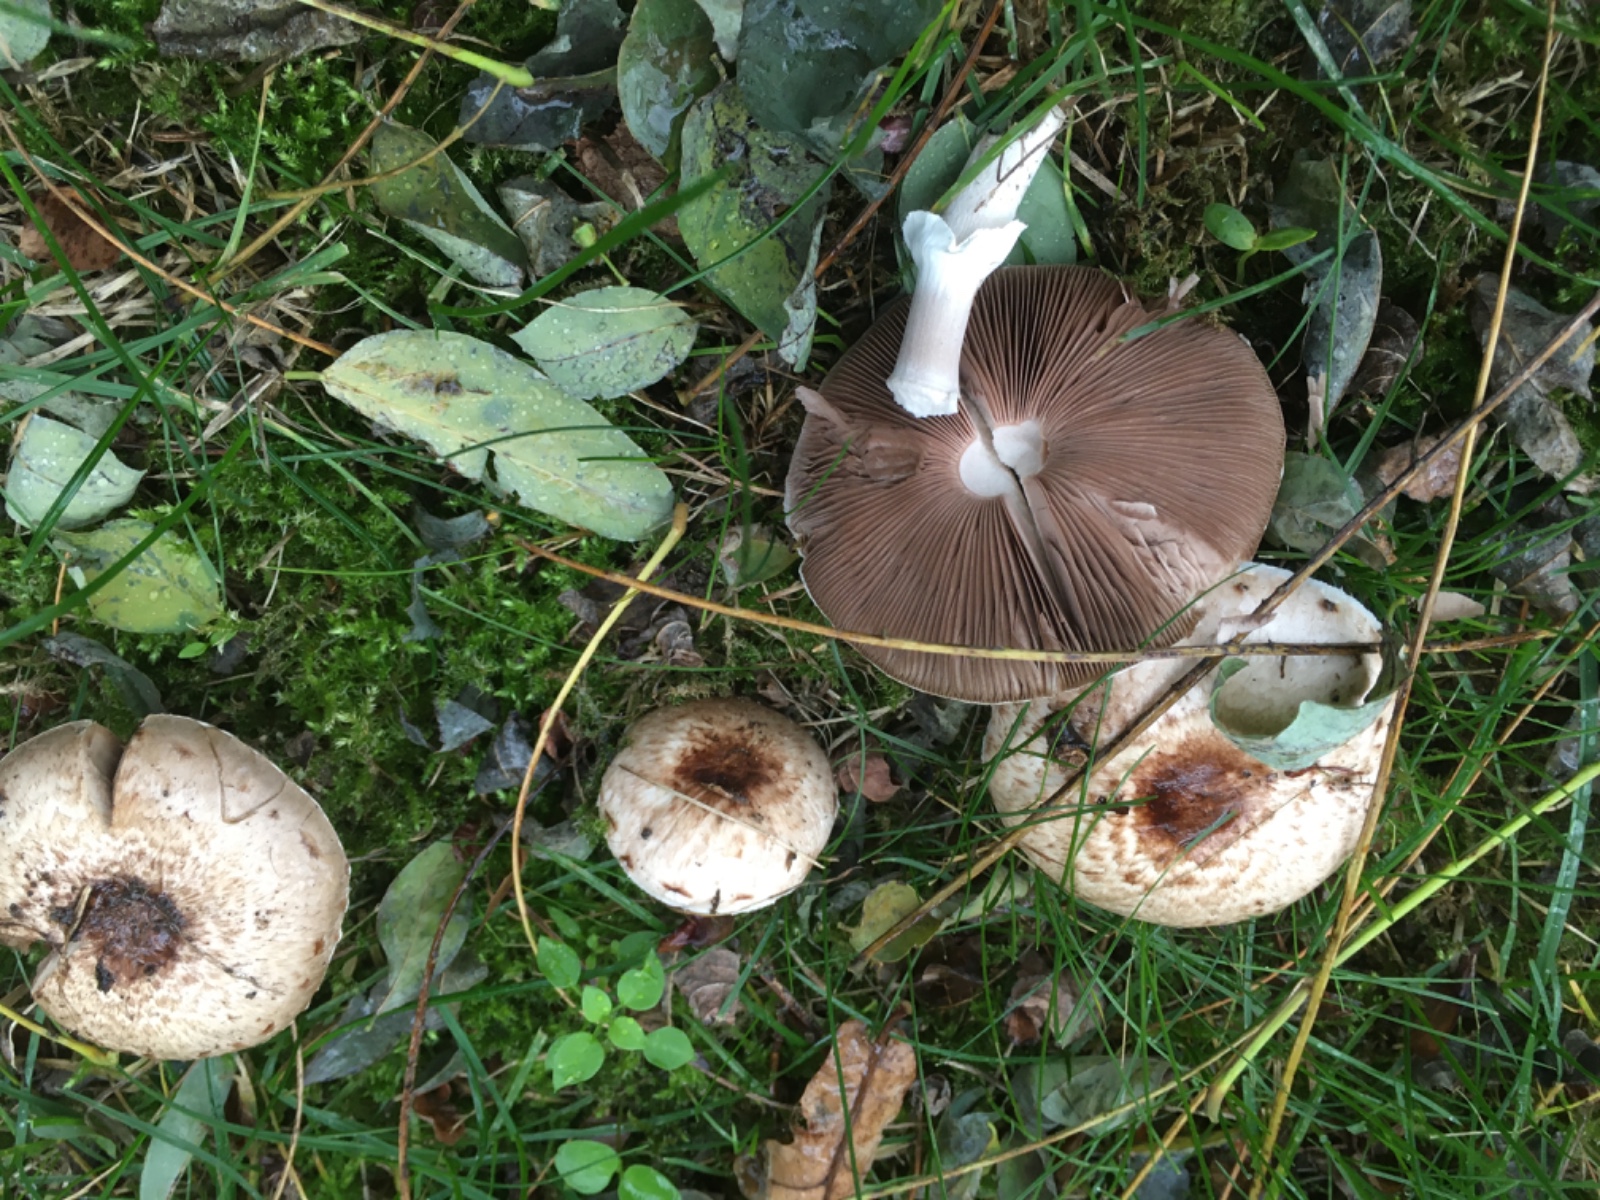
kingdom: Fungi
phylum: Basidiomycota
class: Agaricomycetes
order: Agaricales
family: Agaricaceae
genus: Agaricus
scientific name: Agaricus impudicus
